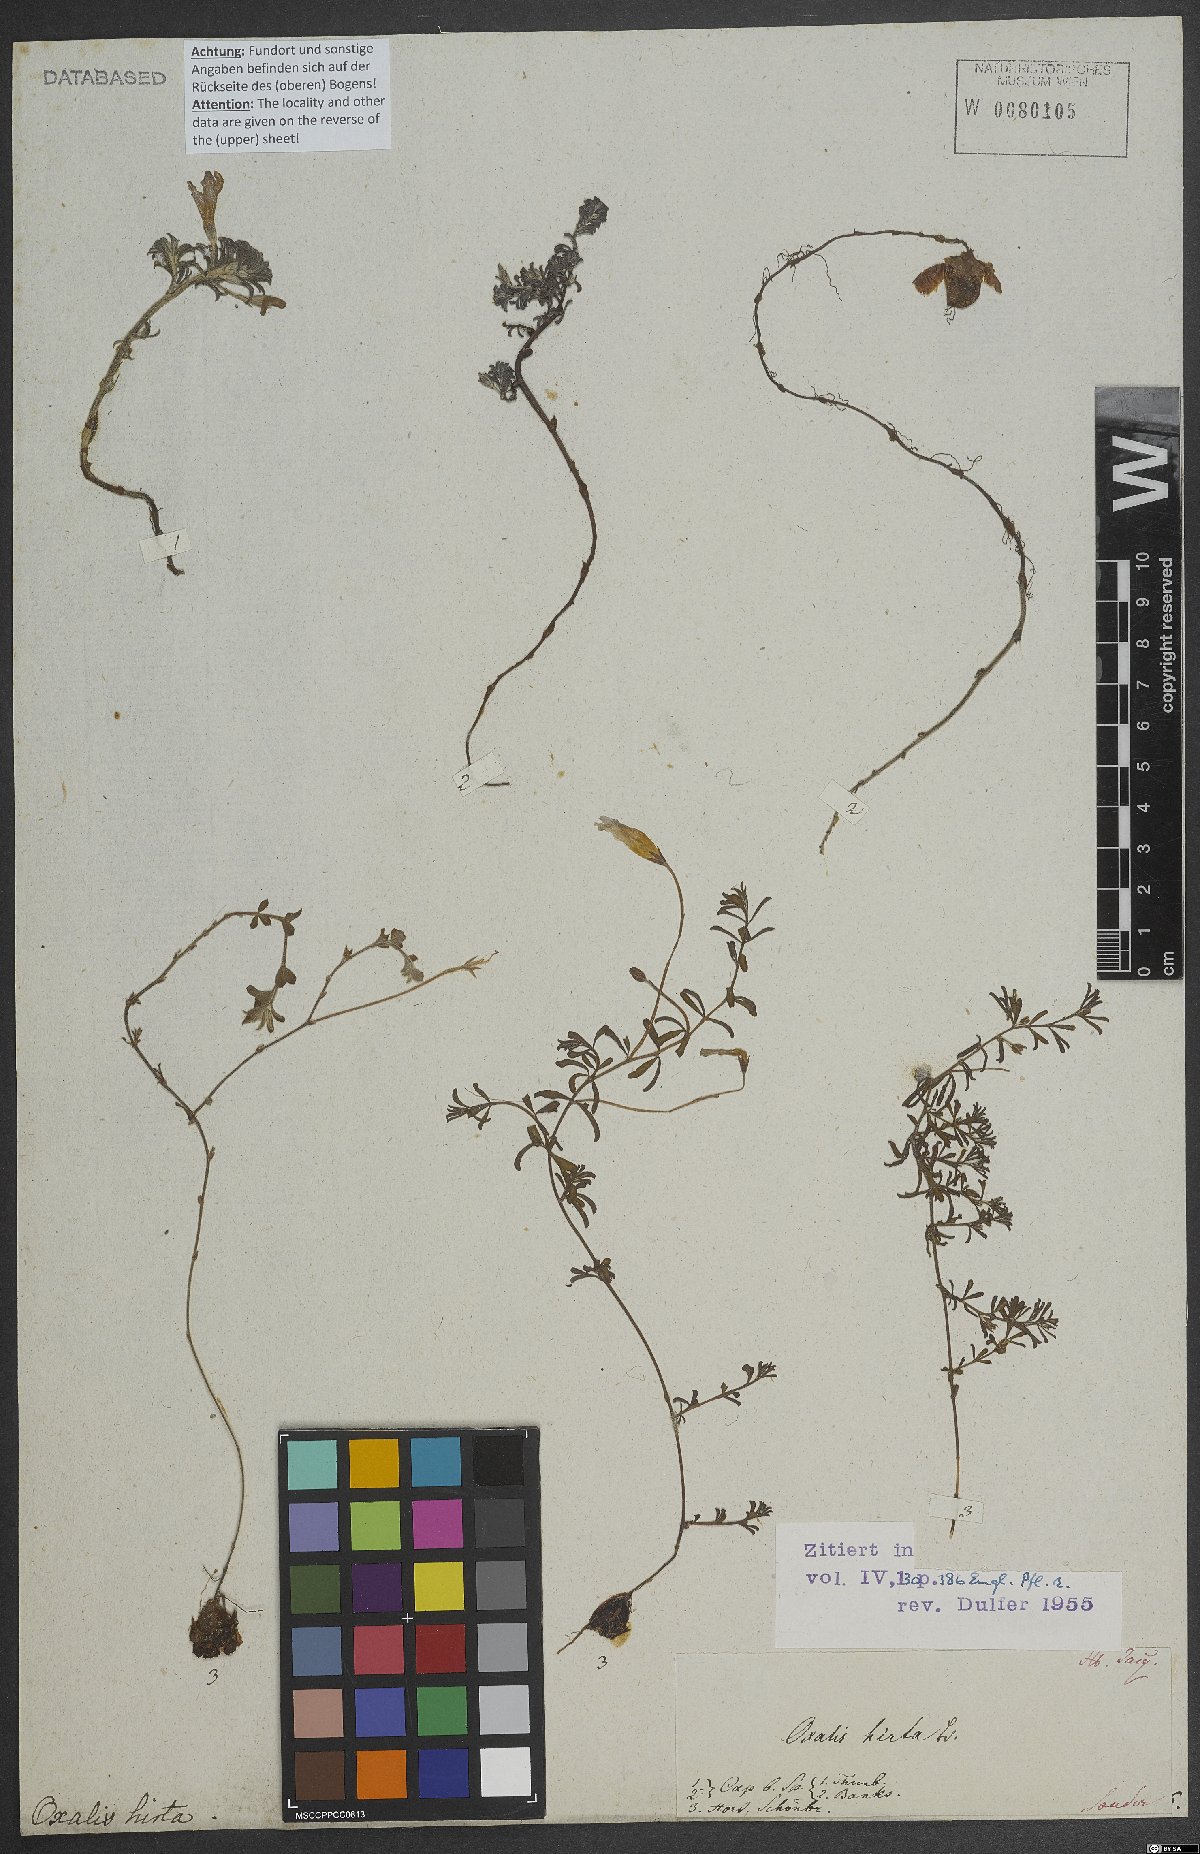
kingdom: Plantae
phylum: Tracheophyta
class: Magnoliopsida
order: Oxalidales
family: Oxalidaceae
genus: Oxalis
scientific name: Oxalis hirta
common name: Tropical woodsorrel
